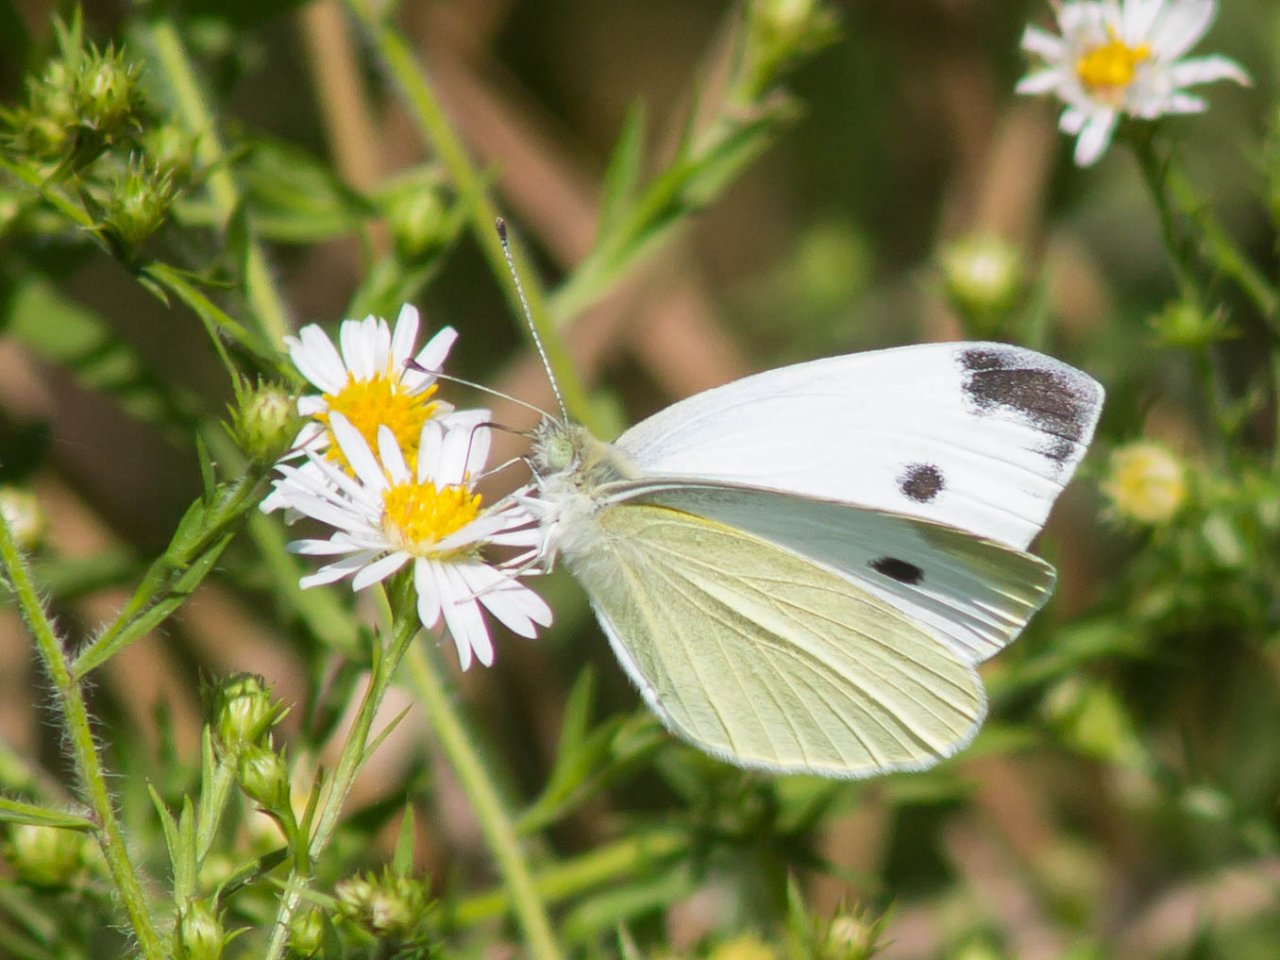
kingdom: Animalia
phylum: Arthropoda
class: Insecta
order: Lepidoptera
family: Pieridae
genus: Pieris
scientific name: Pieris rapae
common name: Cabbage White
